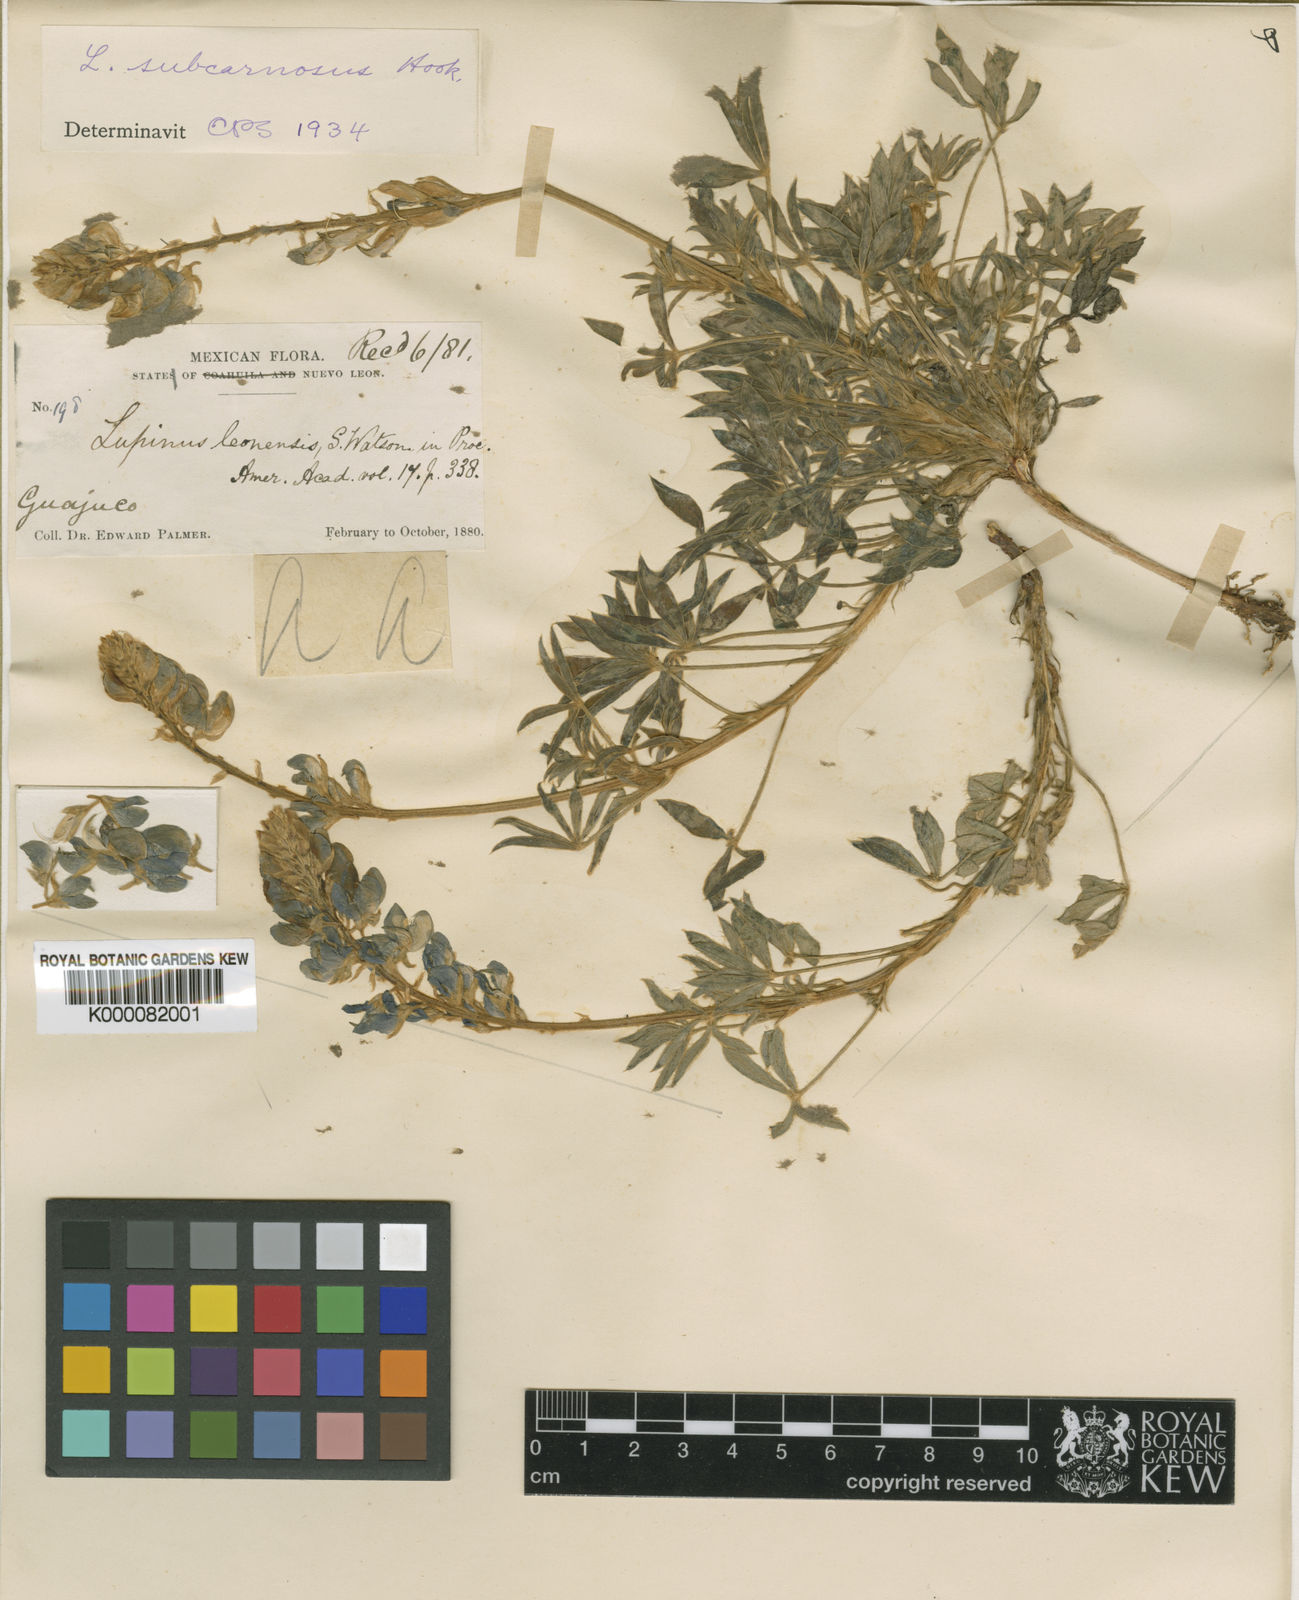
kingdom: Plantae
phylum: Tracheophyta
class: Magnoliopsida
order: Fabales
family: Fabaceae
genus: Lupinus
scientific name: Lupinus subcarnosus
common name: Texas bluebonnet
